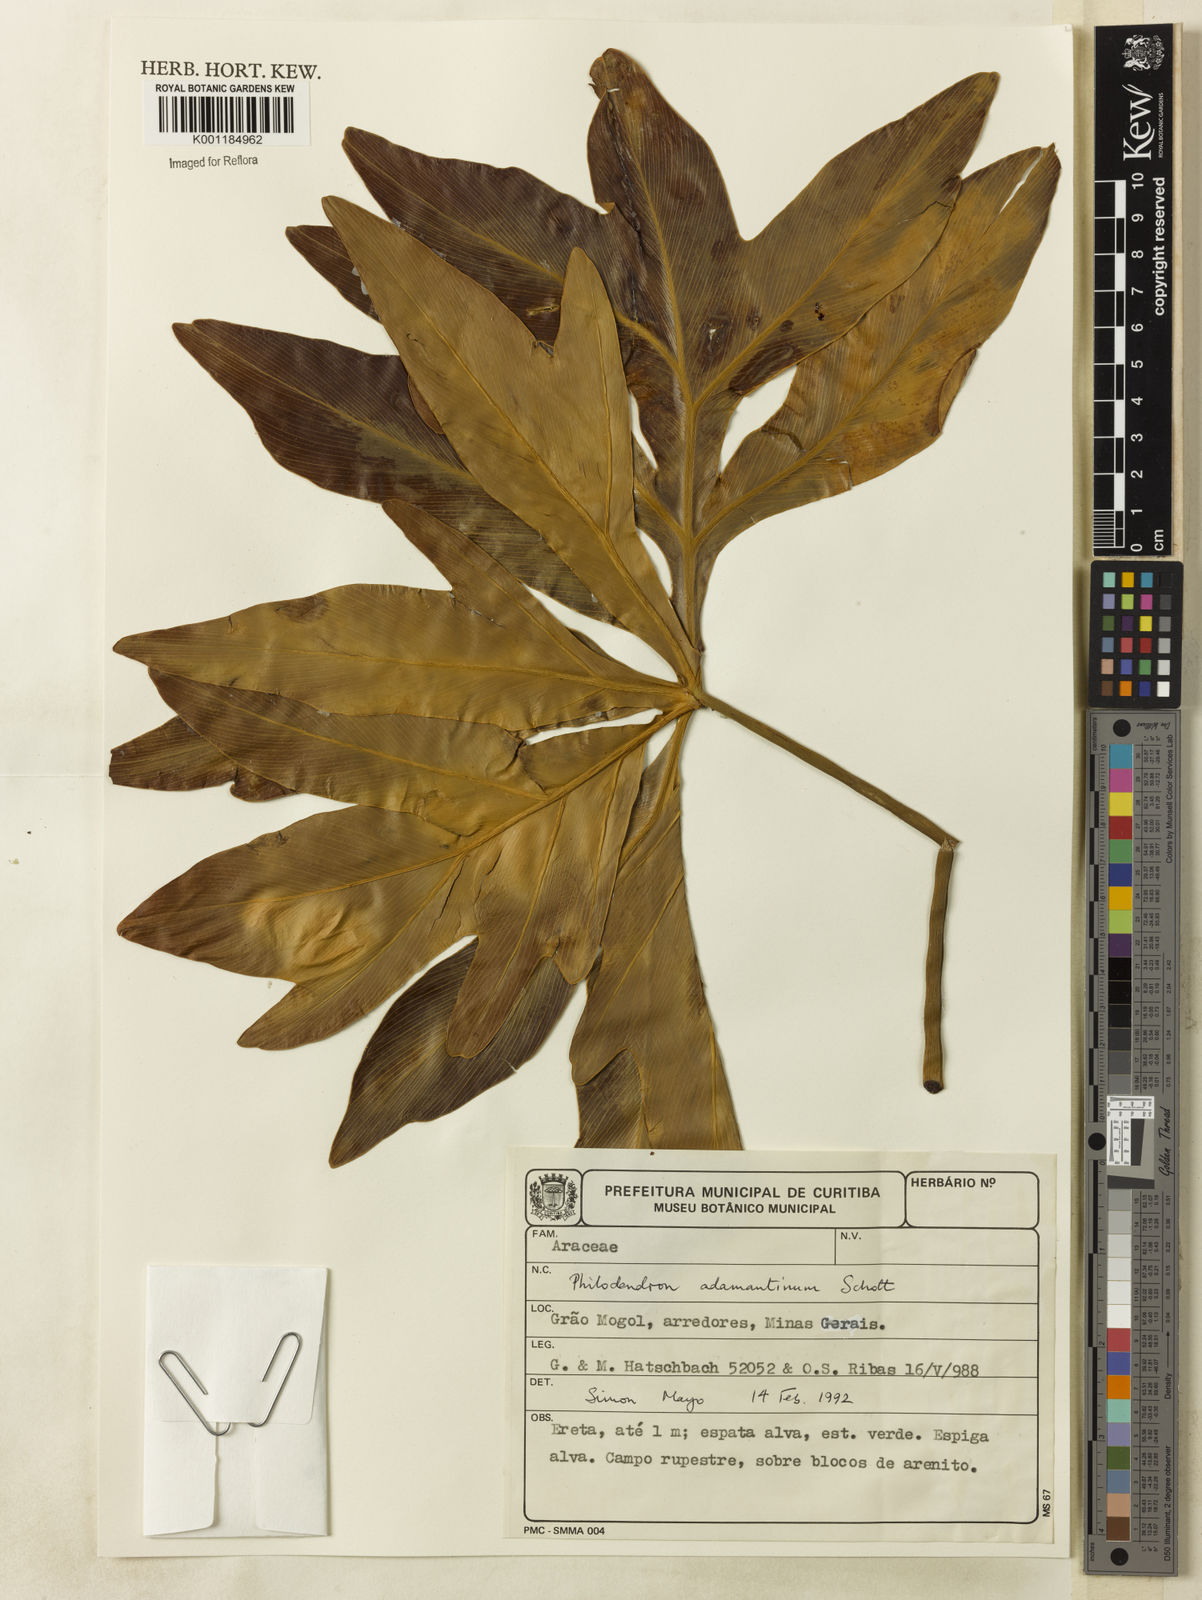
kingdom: Plantae
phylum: Tracheophyta
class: Liliopsida
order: Alismatales
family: Araceae
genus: Thaumatophyllum
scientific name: Thaumatophyllum adamantinum
